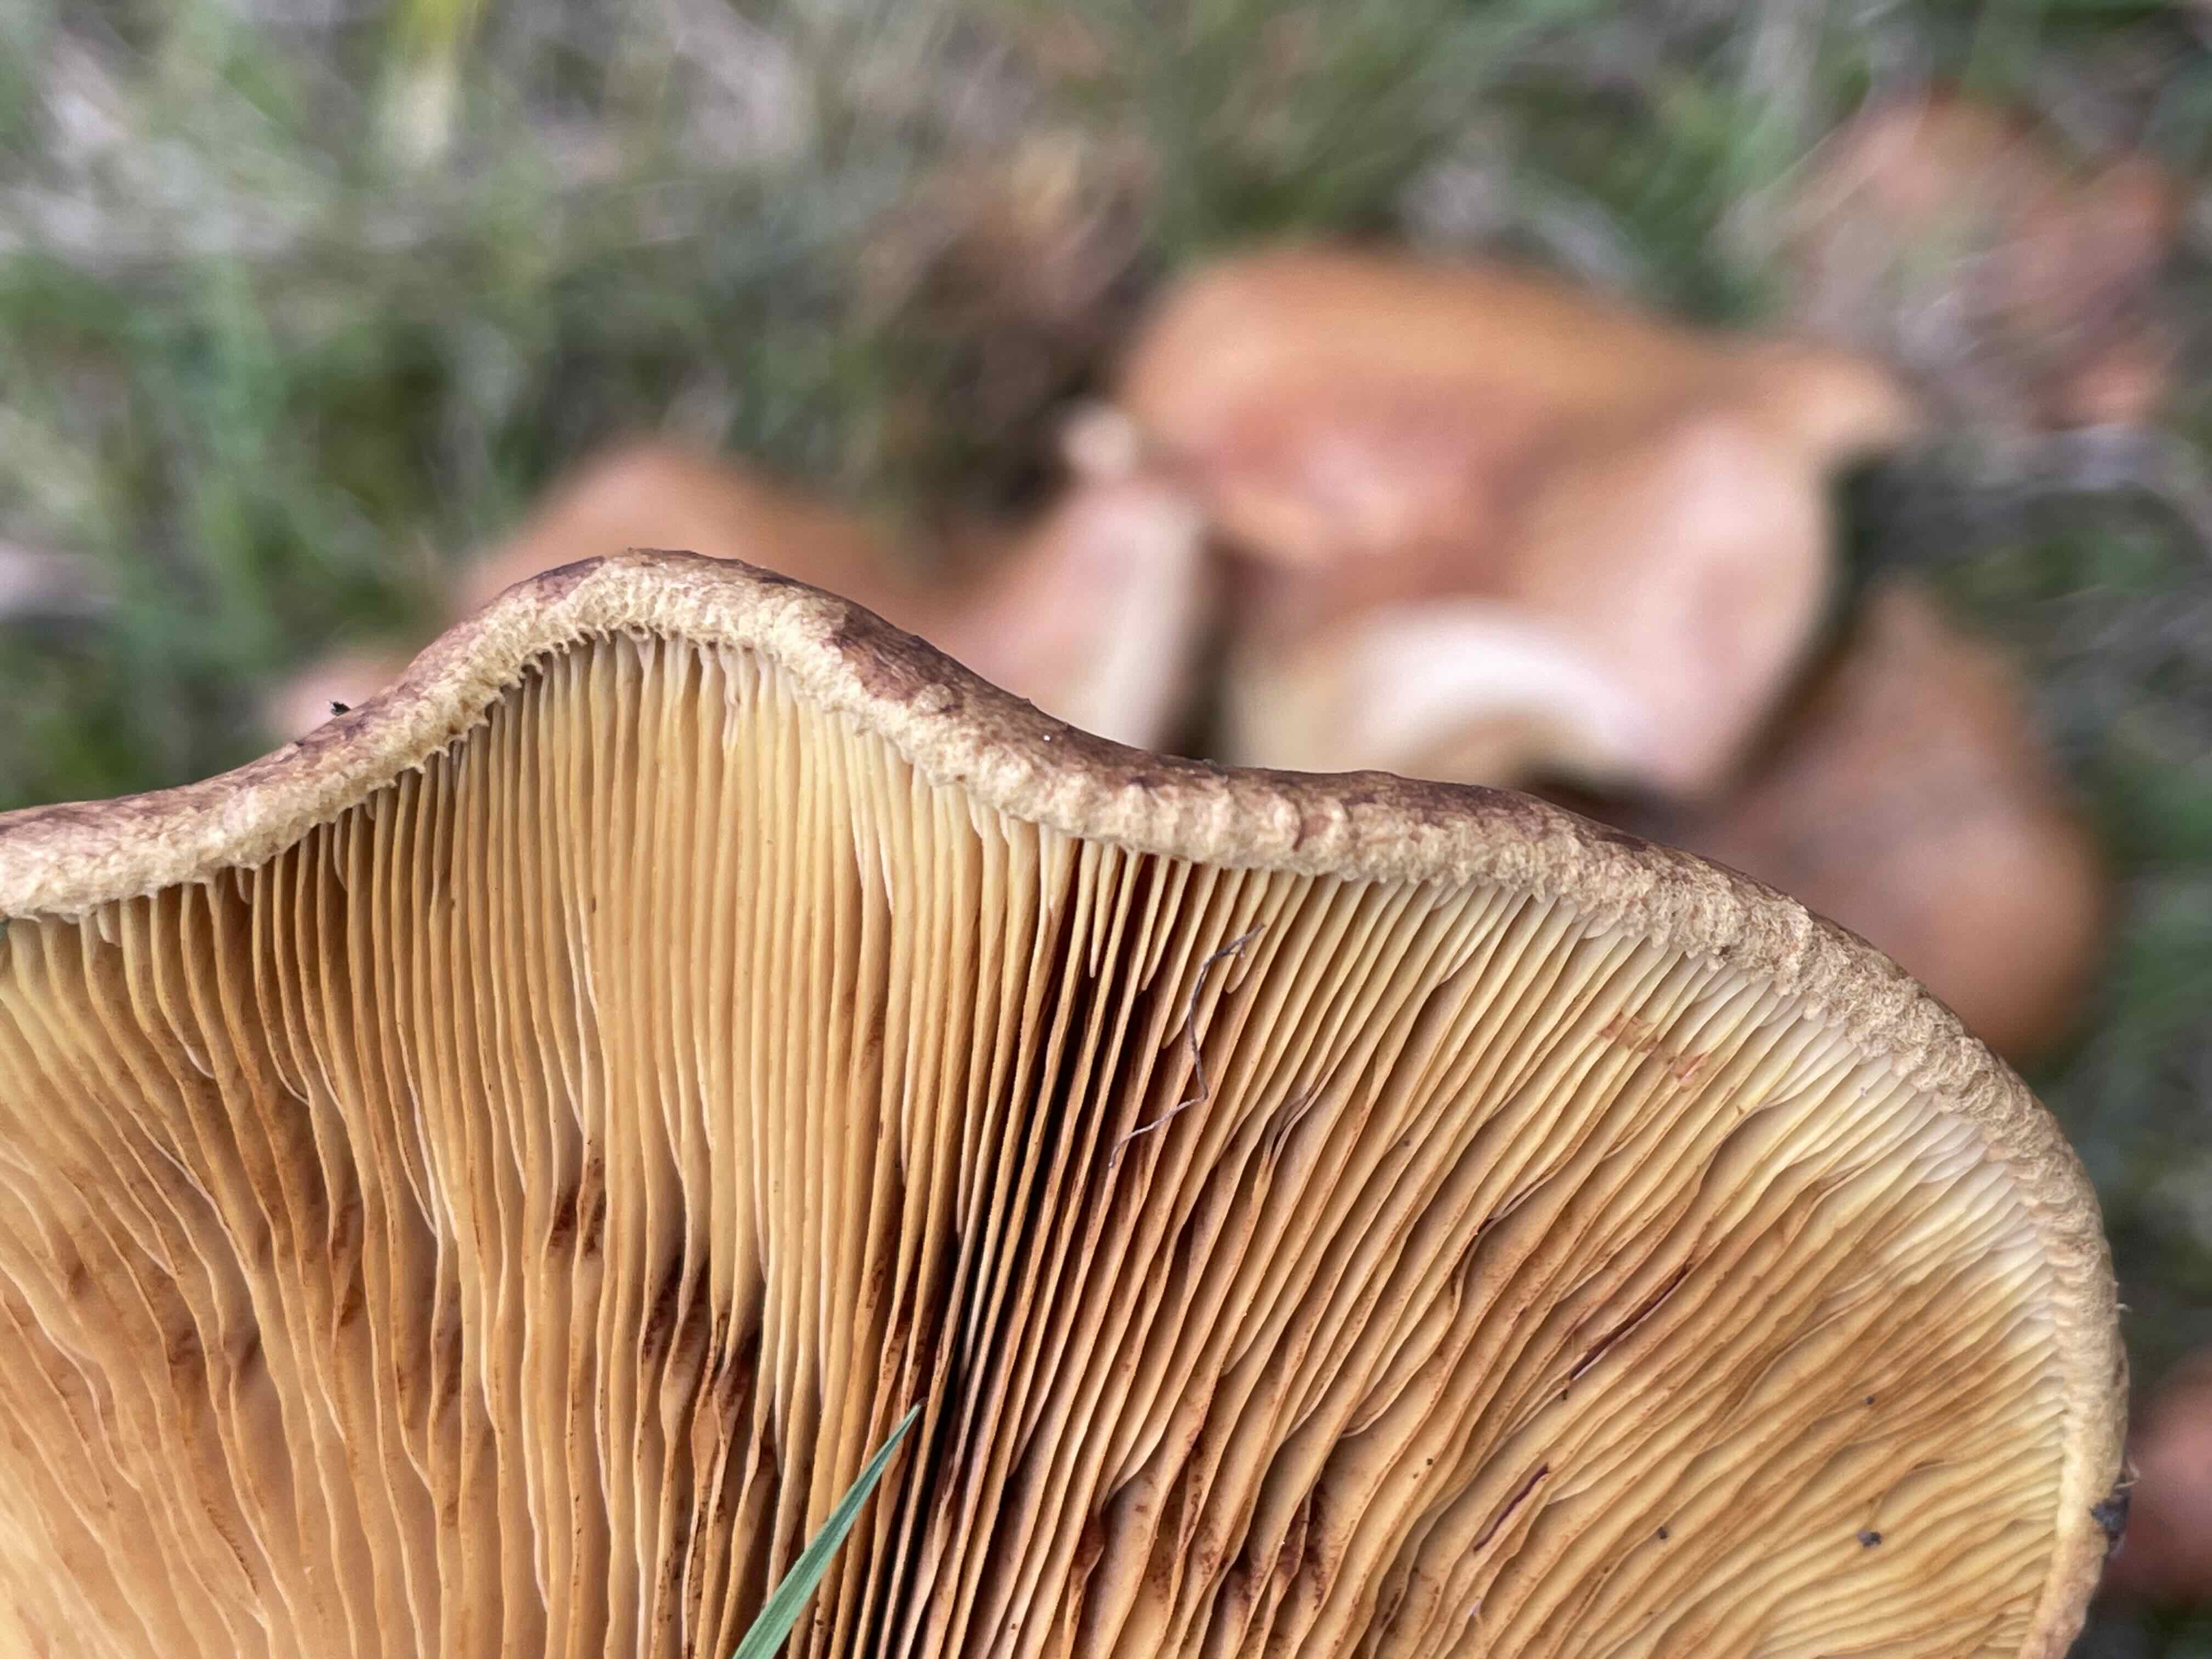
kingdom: Fungi
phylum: Basidiomycota
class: Agaricomycetes
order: Boletales
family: Paxillaceae
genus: Paxillus
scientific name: Paxillus obscurisporus
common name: mahognisporet netbladhat
